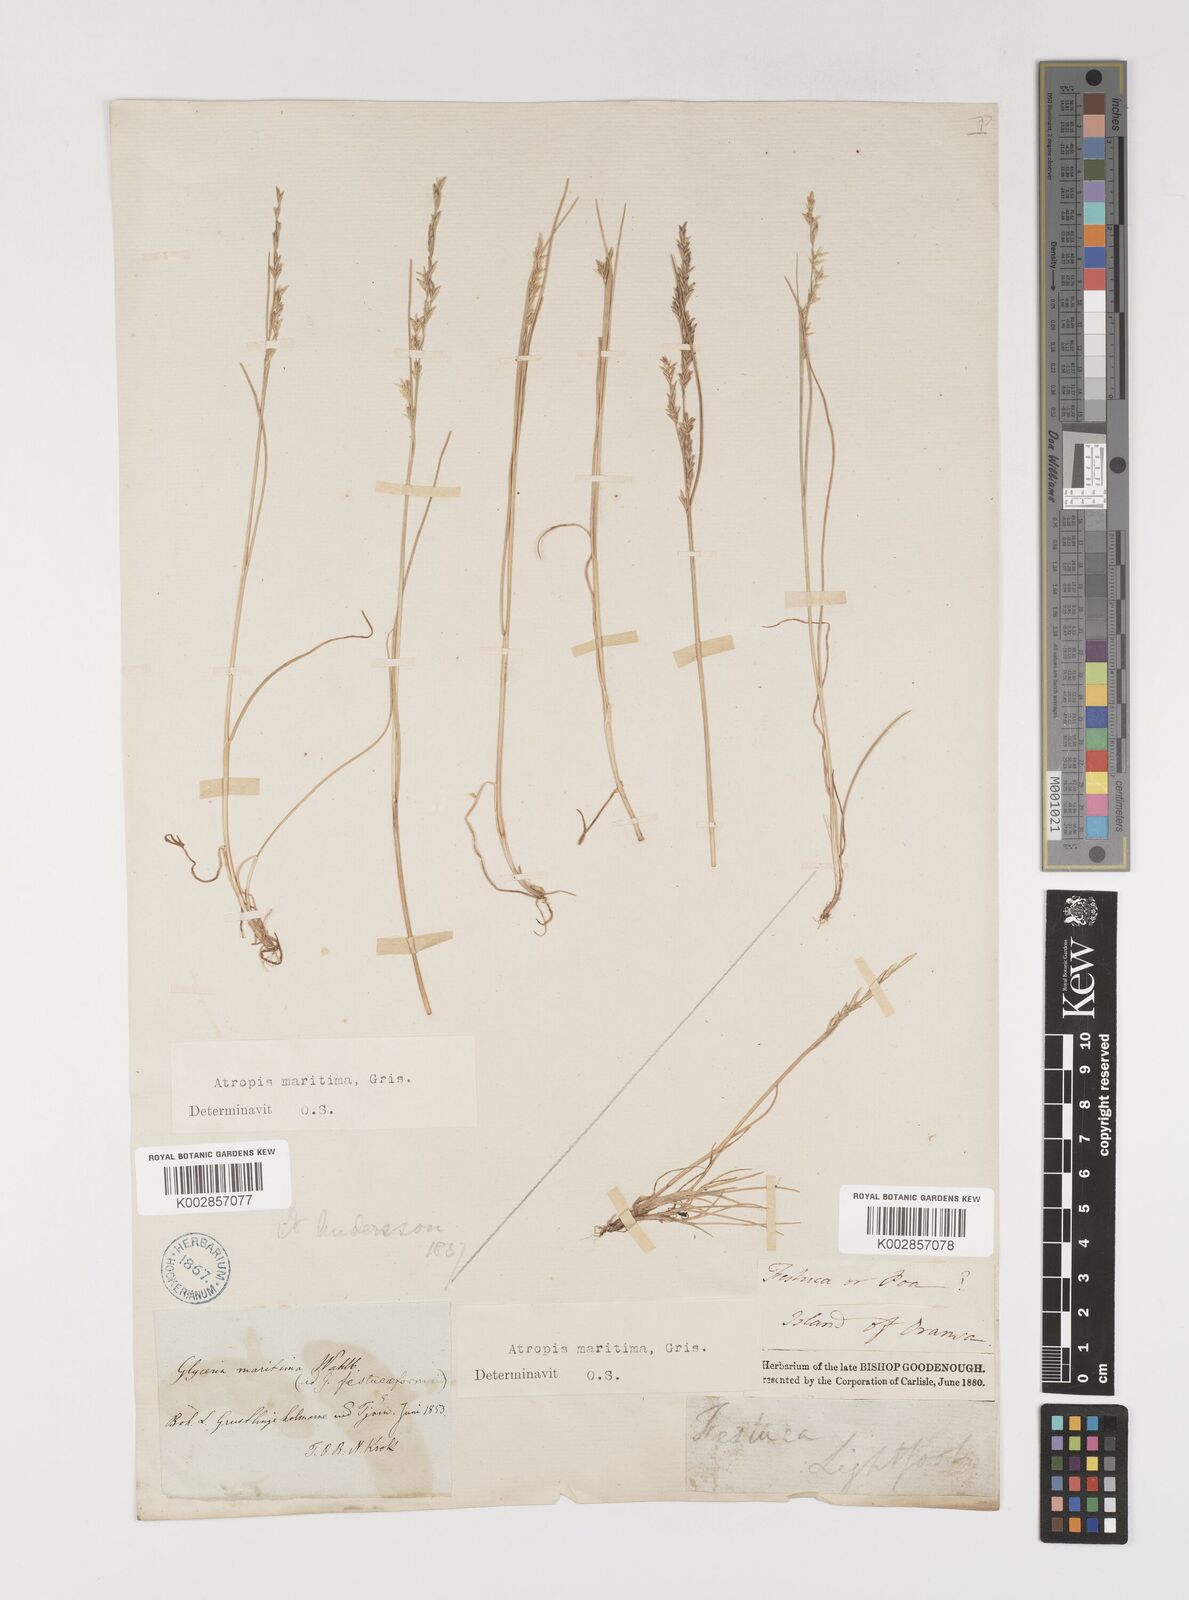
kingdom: Plantae
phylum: Tracheophyta
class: Liliopsida
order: Poales
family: Poaceae
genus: Puccinellia
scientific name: Puccinellia maritima
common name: Common saltmarsh grass
